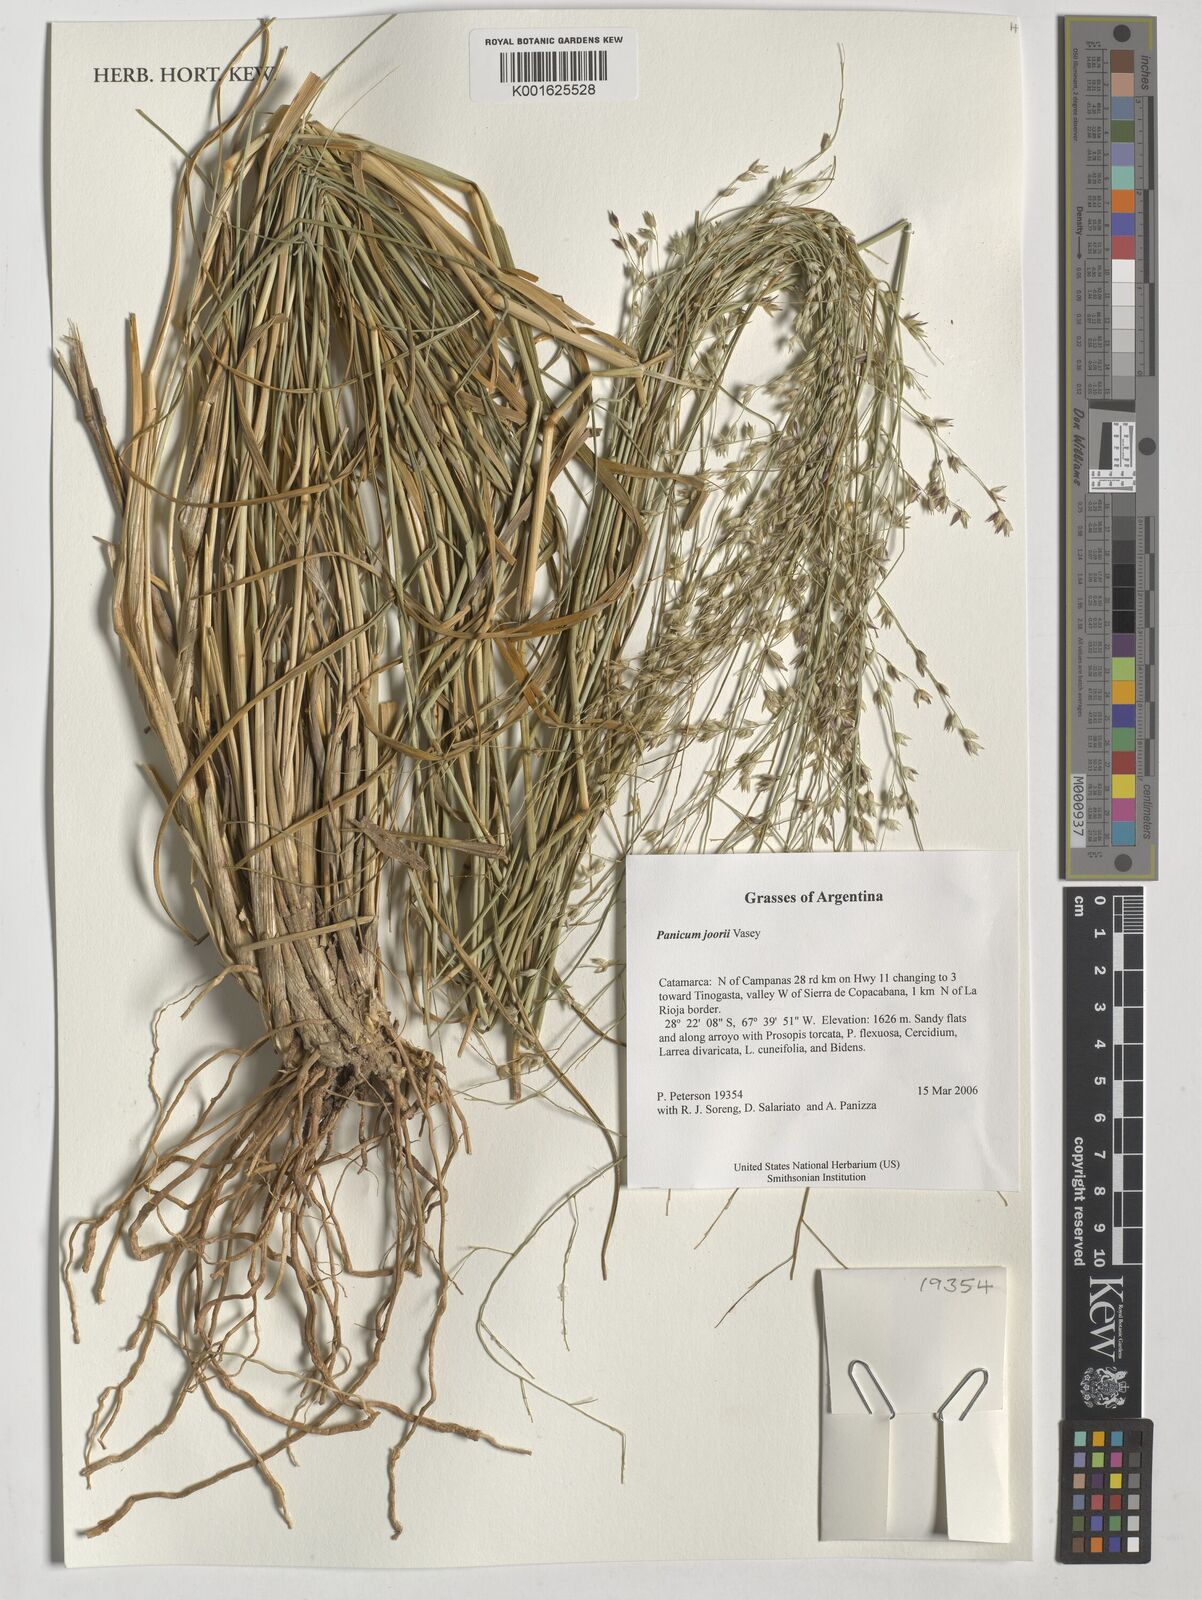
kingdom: Plantae
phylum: Tracheophyta
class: Liliopsida
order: Poales
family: Poaceae
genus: Dichanthelium
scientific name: Dichanthelium commutatum
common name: Variable witchgrass
